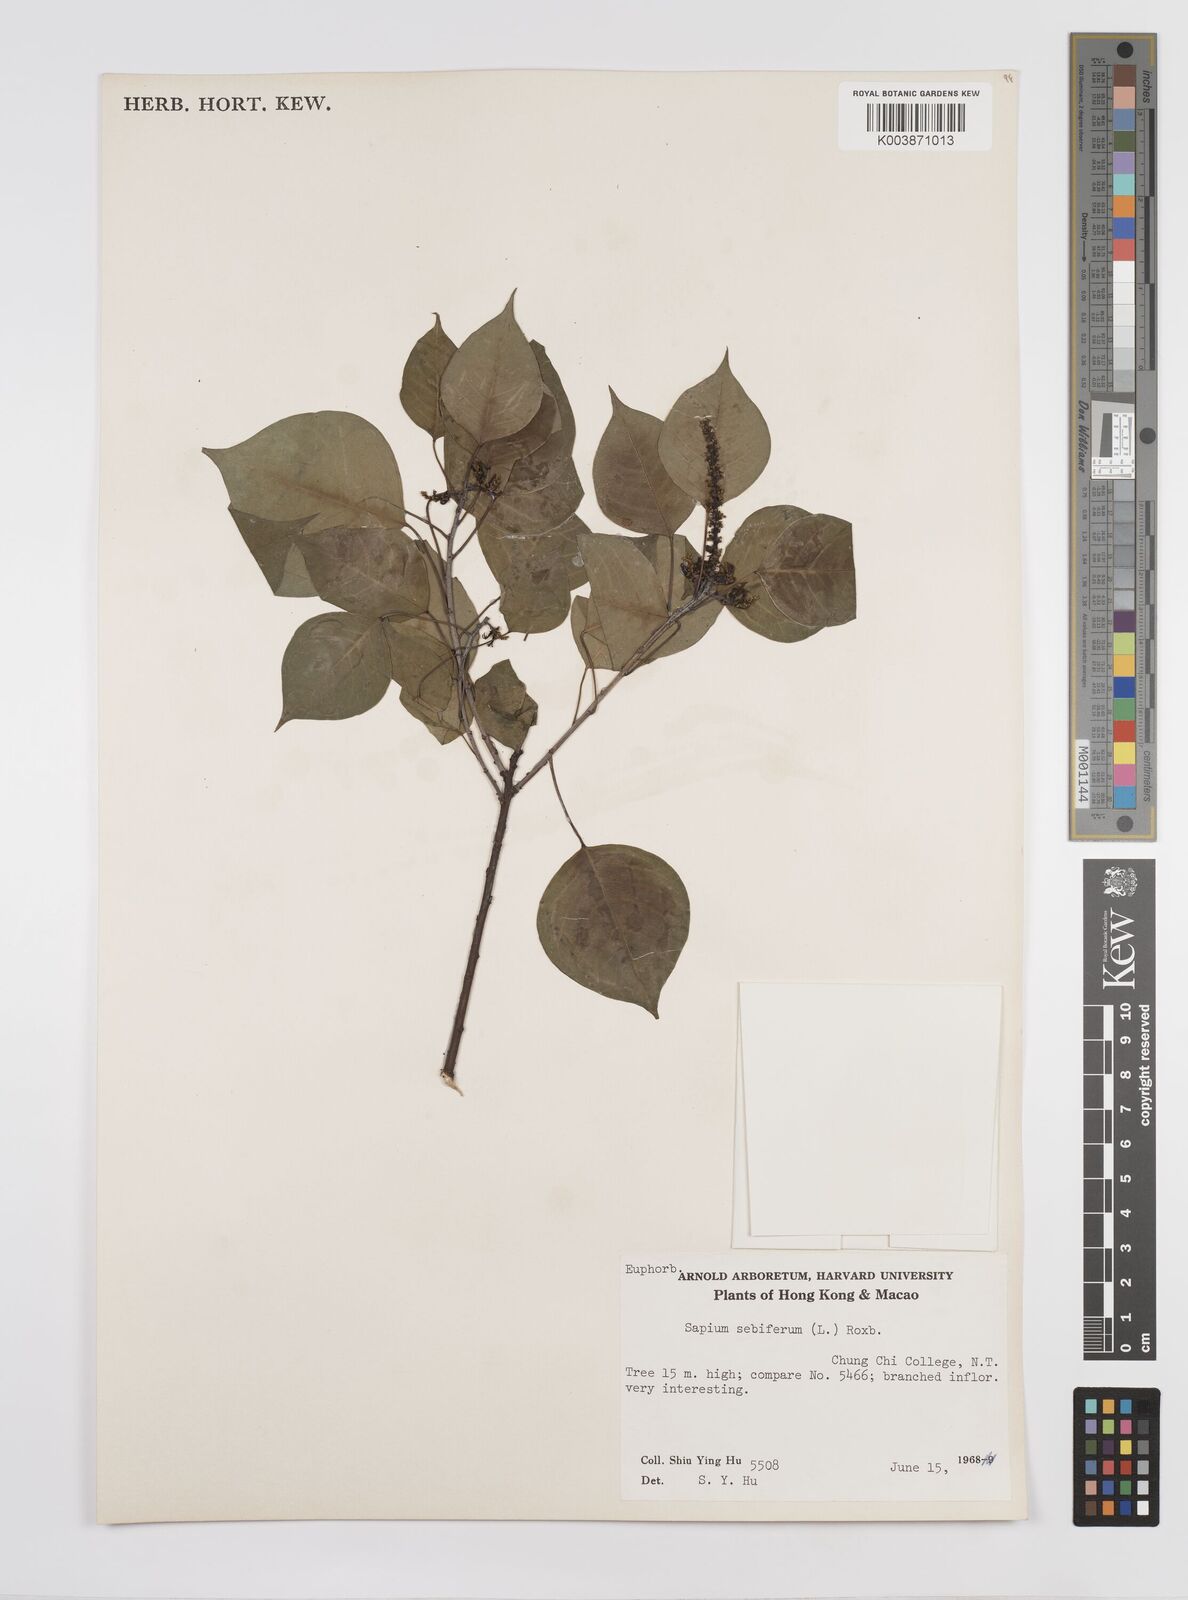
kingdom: Plantae
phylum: Tracheophyta
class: Magnoliopsida
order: Malpighiales
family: Euphorbiaceae
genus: Triadica
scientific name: Triadica sebifera
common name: Chinese tallow
